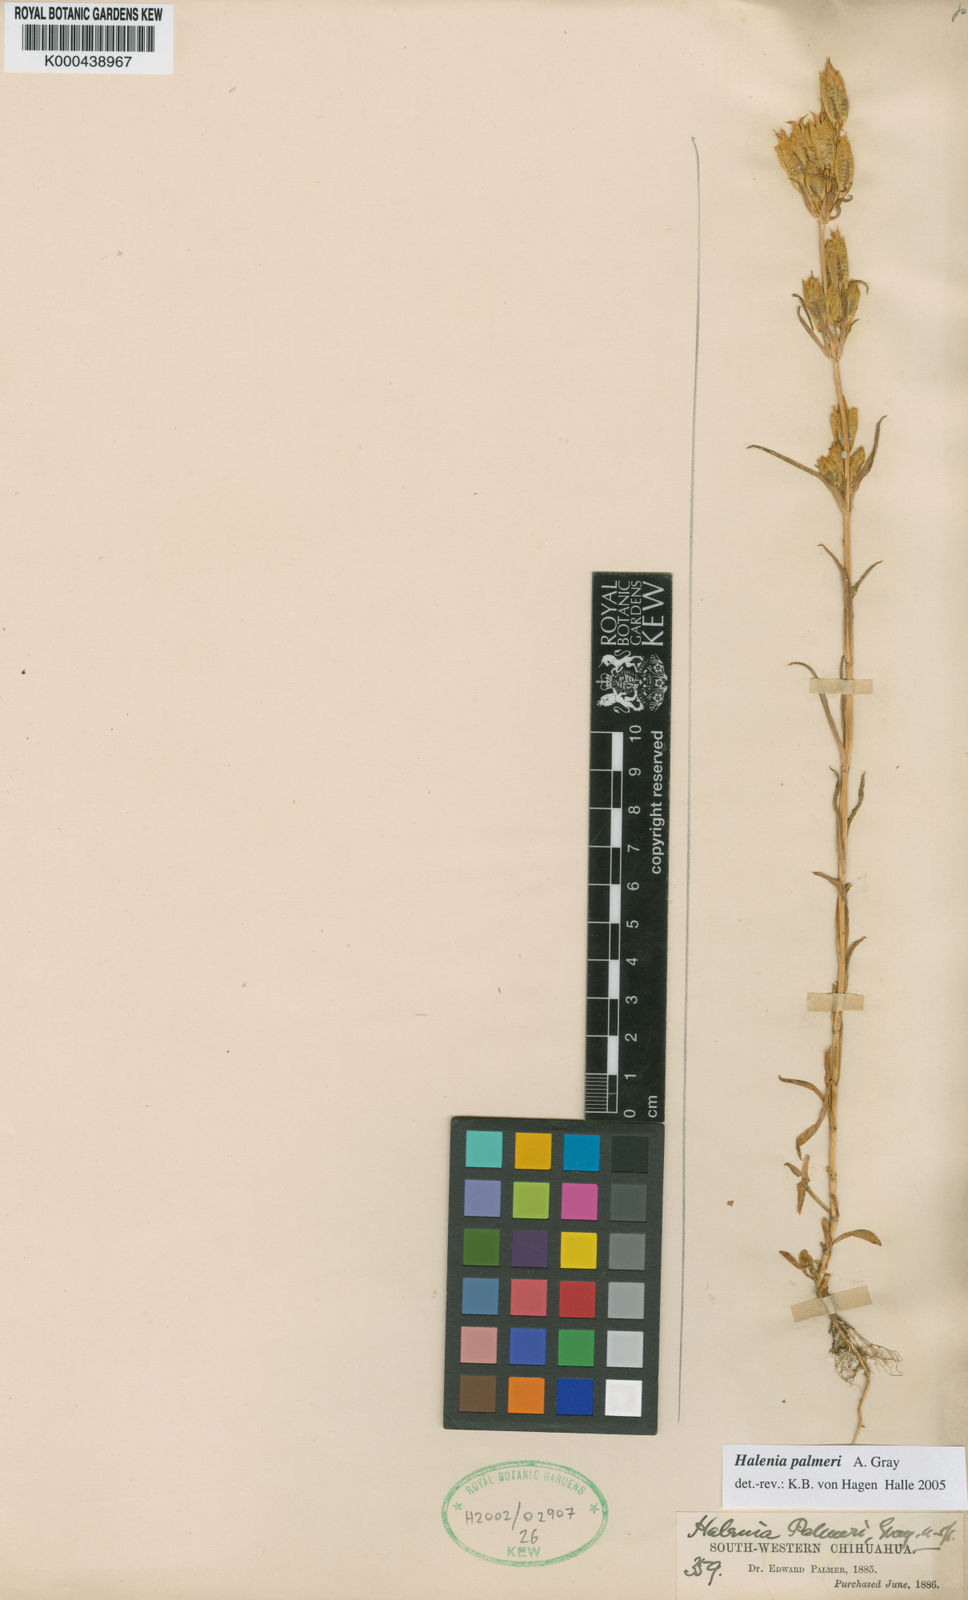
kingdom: Plantae
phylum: Tracheophyta
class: Magnoliopsida
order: Gentianales
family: Gentianaceae
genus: Halenia
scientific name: Halenia palmeri
